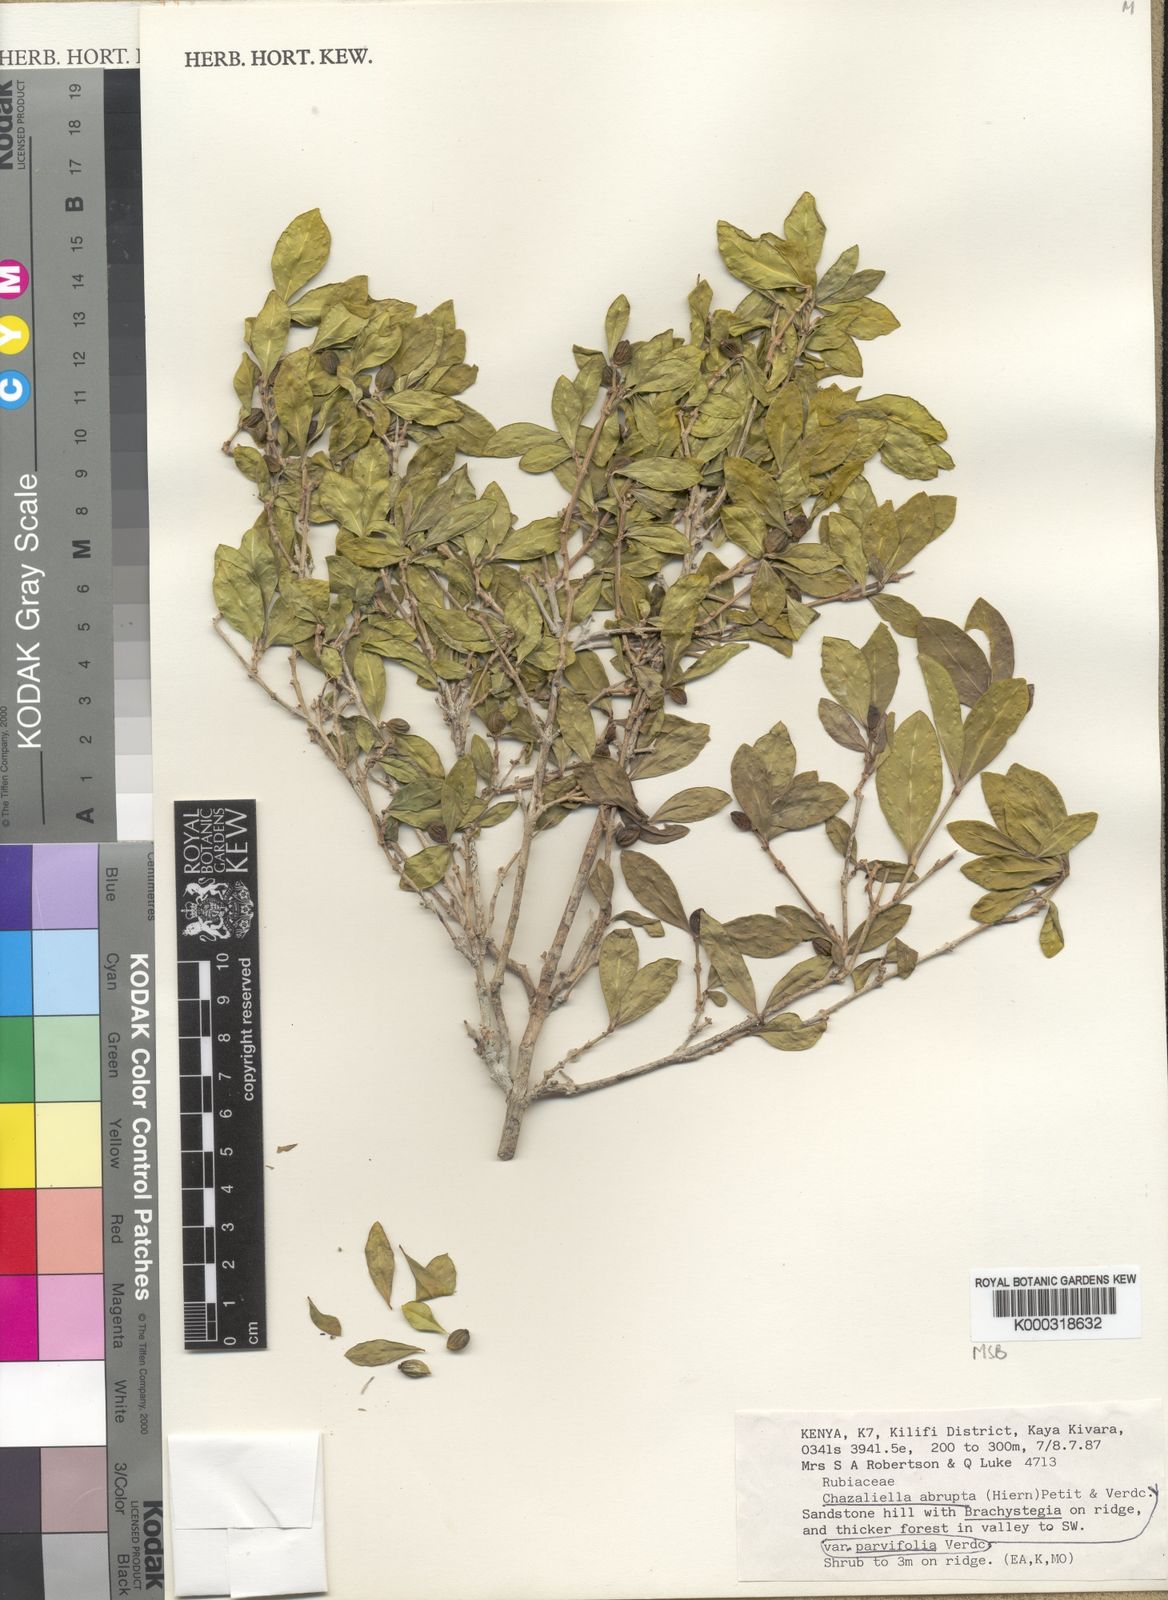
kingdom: Plantae
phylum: Tracheophyta
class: Magnoliopsida
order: Gentianales
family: Rubiaceae
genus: Eumachia
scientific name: Eumachia abrupta
